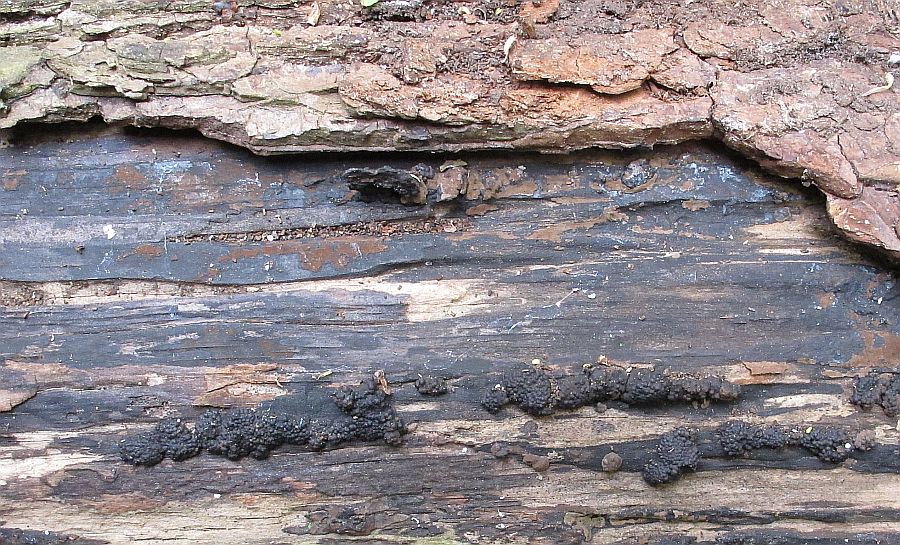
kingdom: Fungi
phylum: Ascomycota
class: Sordariomycetes
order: Xylariales
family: Hypoxylaceae
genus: Jackrogersella
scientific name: Jackrogersella multiformis
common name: foranderlig kulbær
